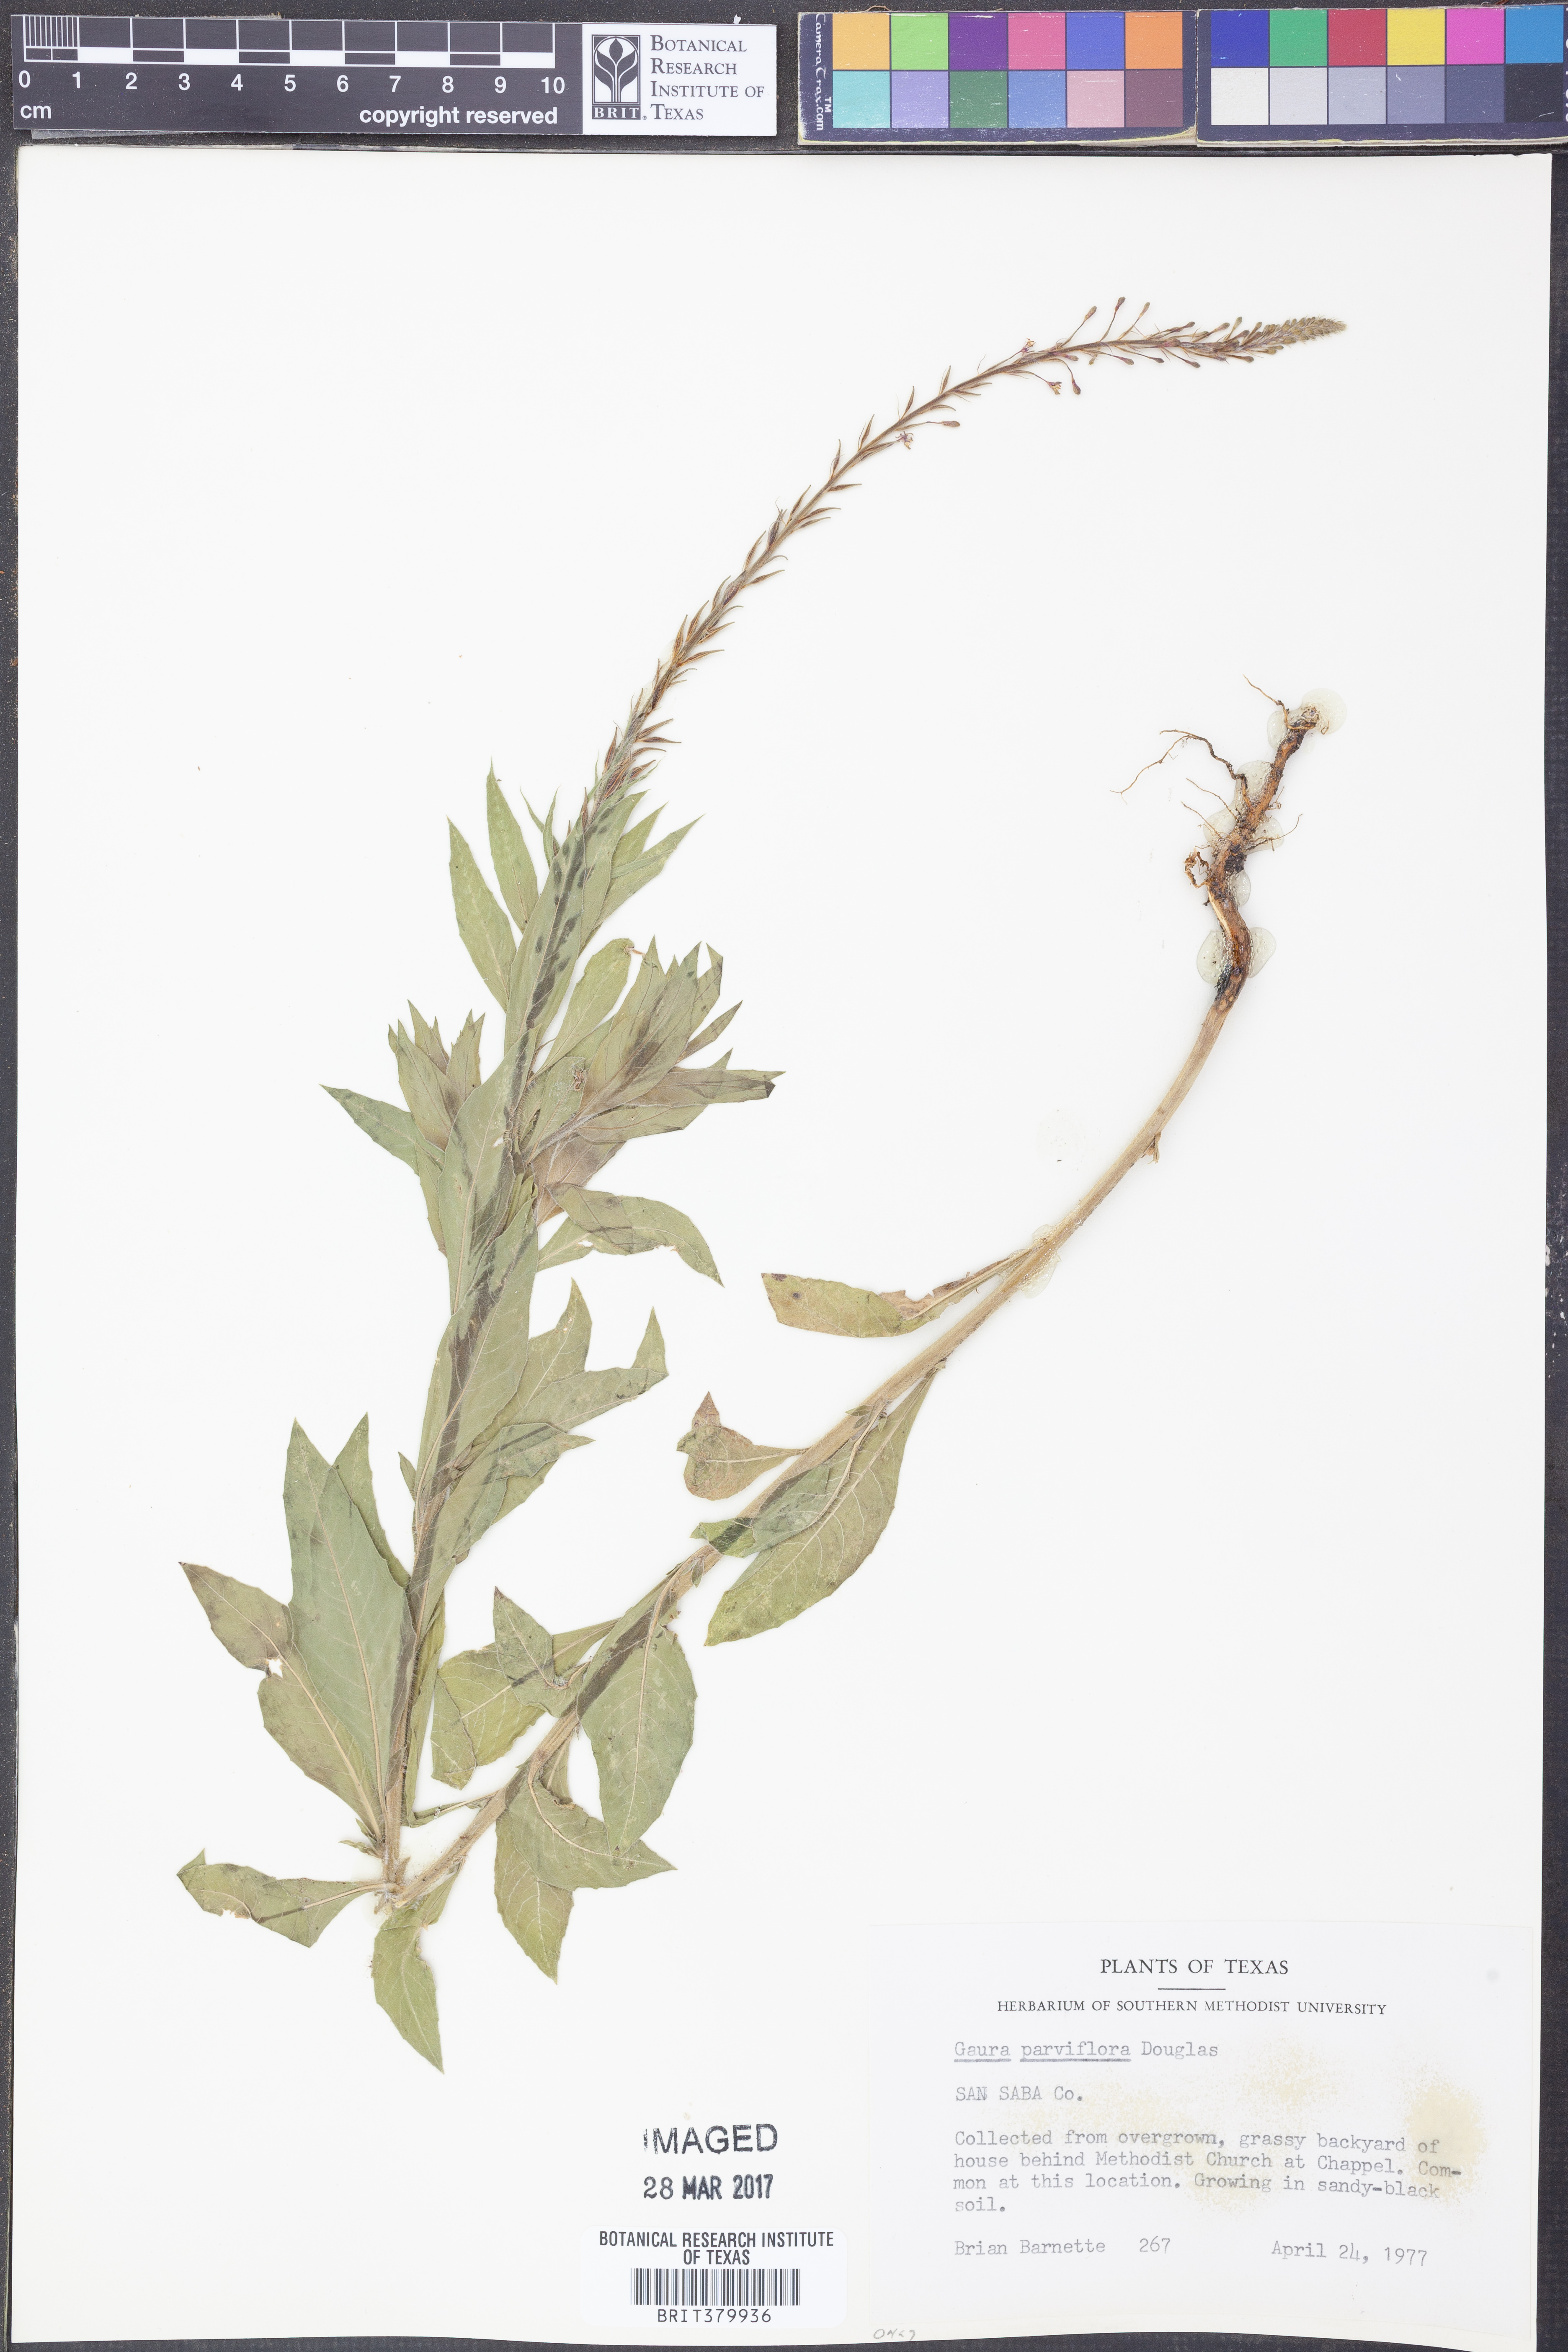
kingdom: Plantae
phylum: Tracheophyta
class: Magnoliopsida
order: Myrtales
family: Onagraceae
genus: Oenothera
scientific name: Oenothera curtiflora
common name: Velvetweed
